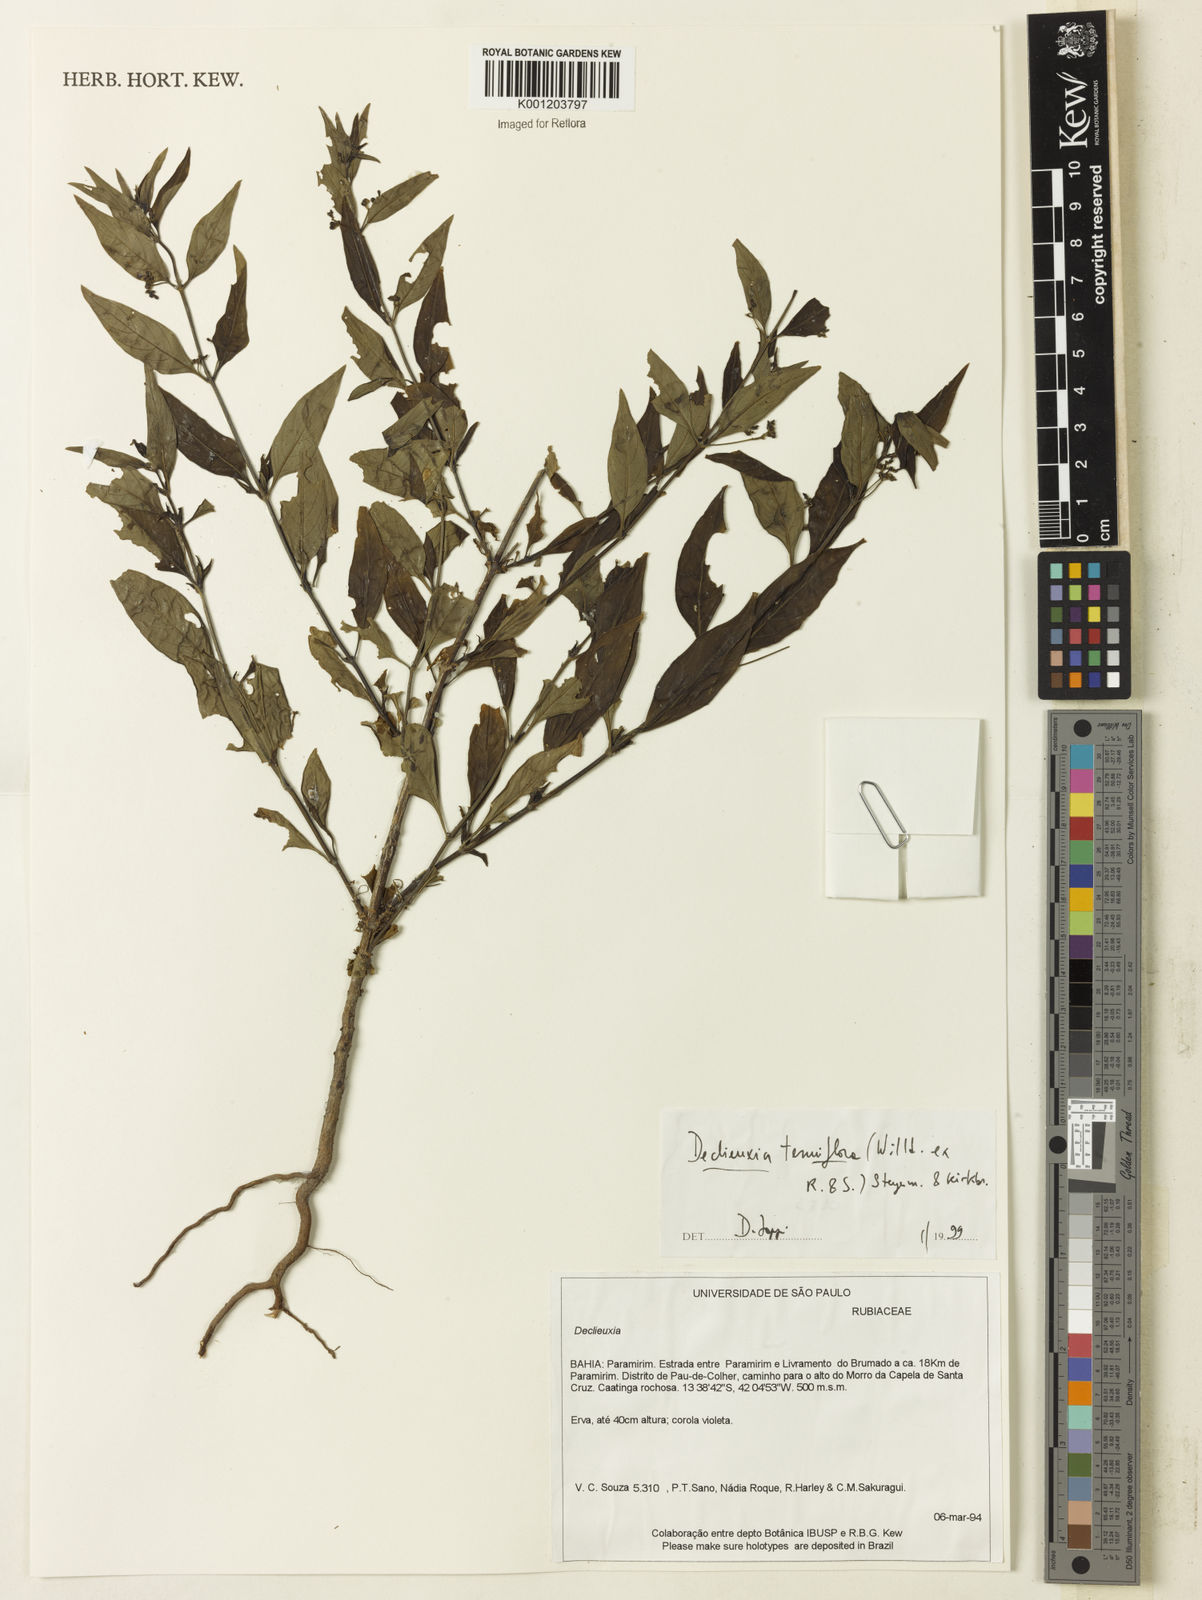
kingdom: Plantae
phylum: Tracheophyta
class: Magnoliopsida
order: Gentianales
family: Rubiaceae
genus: Declieuxia
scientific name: Declieuxia tenuiflora
